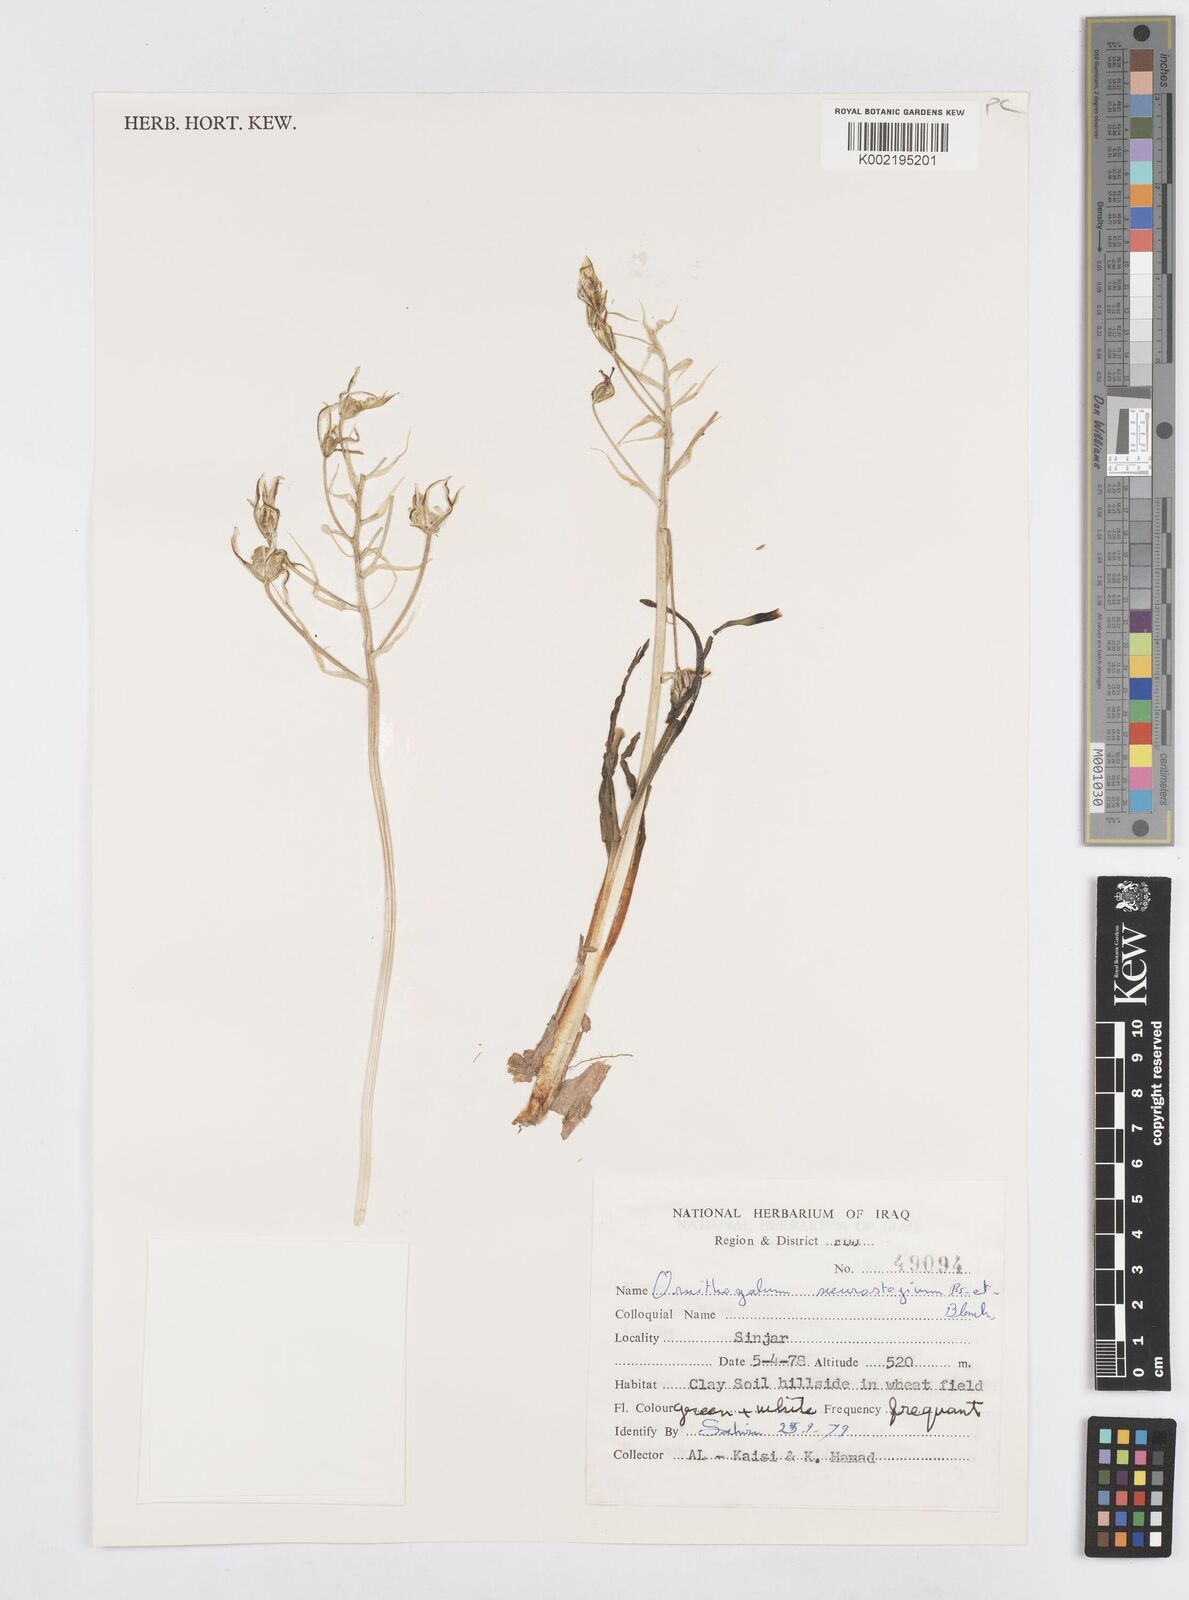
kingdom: Plantae
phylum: Tracheophyta
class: Liliopsida
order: Asparagales
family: Asparagaceae
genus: Ornithogalum
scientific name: Ornithogalum neurostegium
